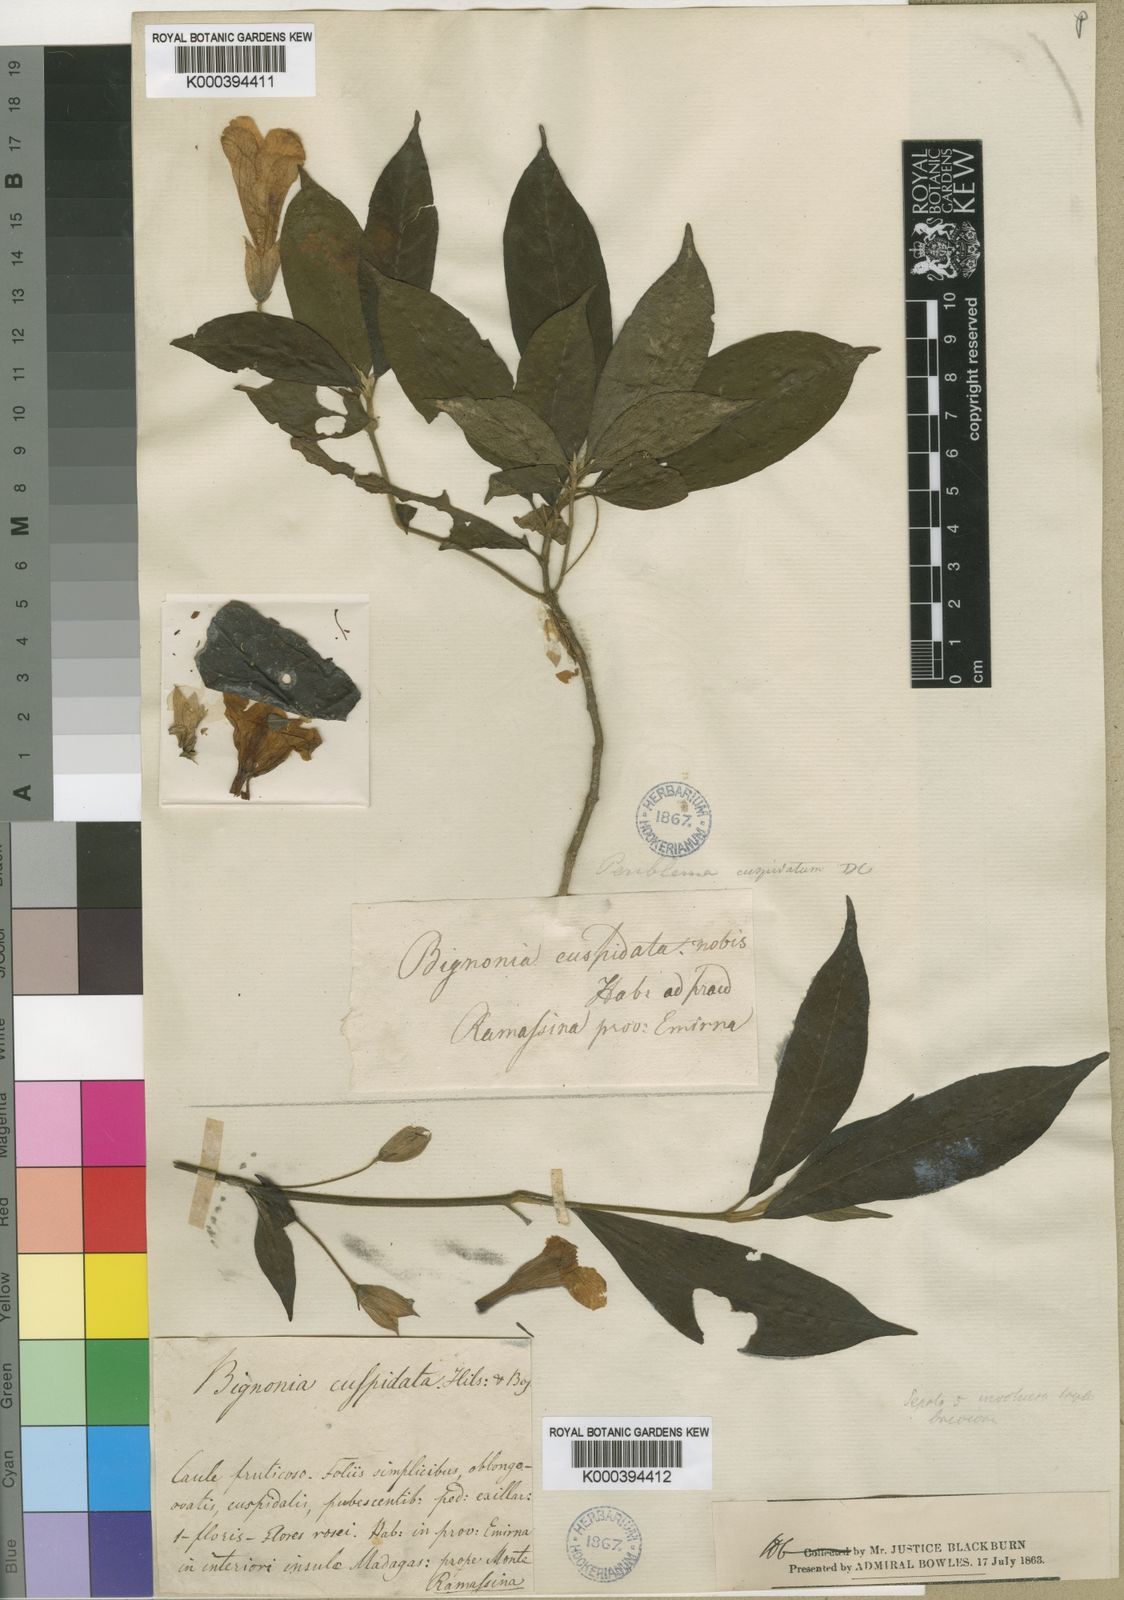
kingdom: Plantae
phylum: Tracheophyta
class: Magnoliopsida
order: Lamiales
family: Acanthaceae
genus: Boutonia
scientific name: Boutonia cuspidata
